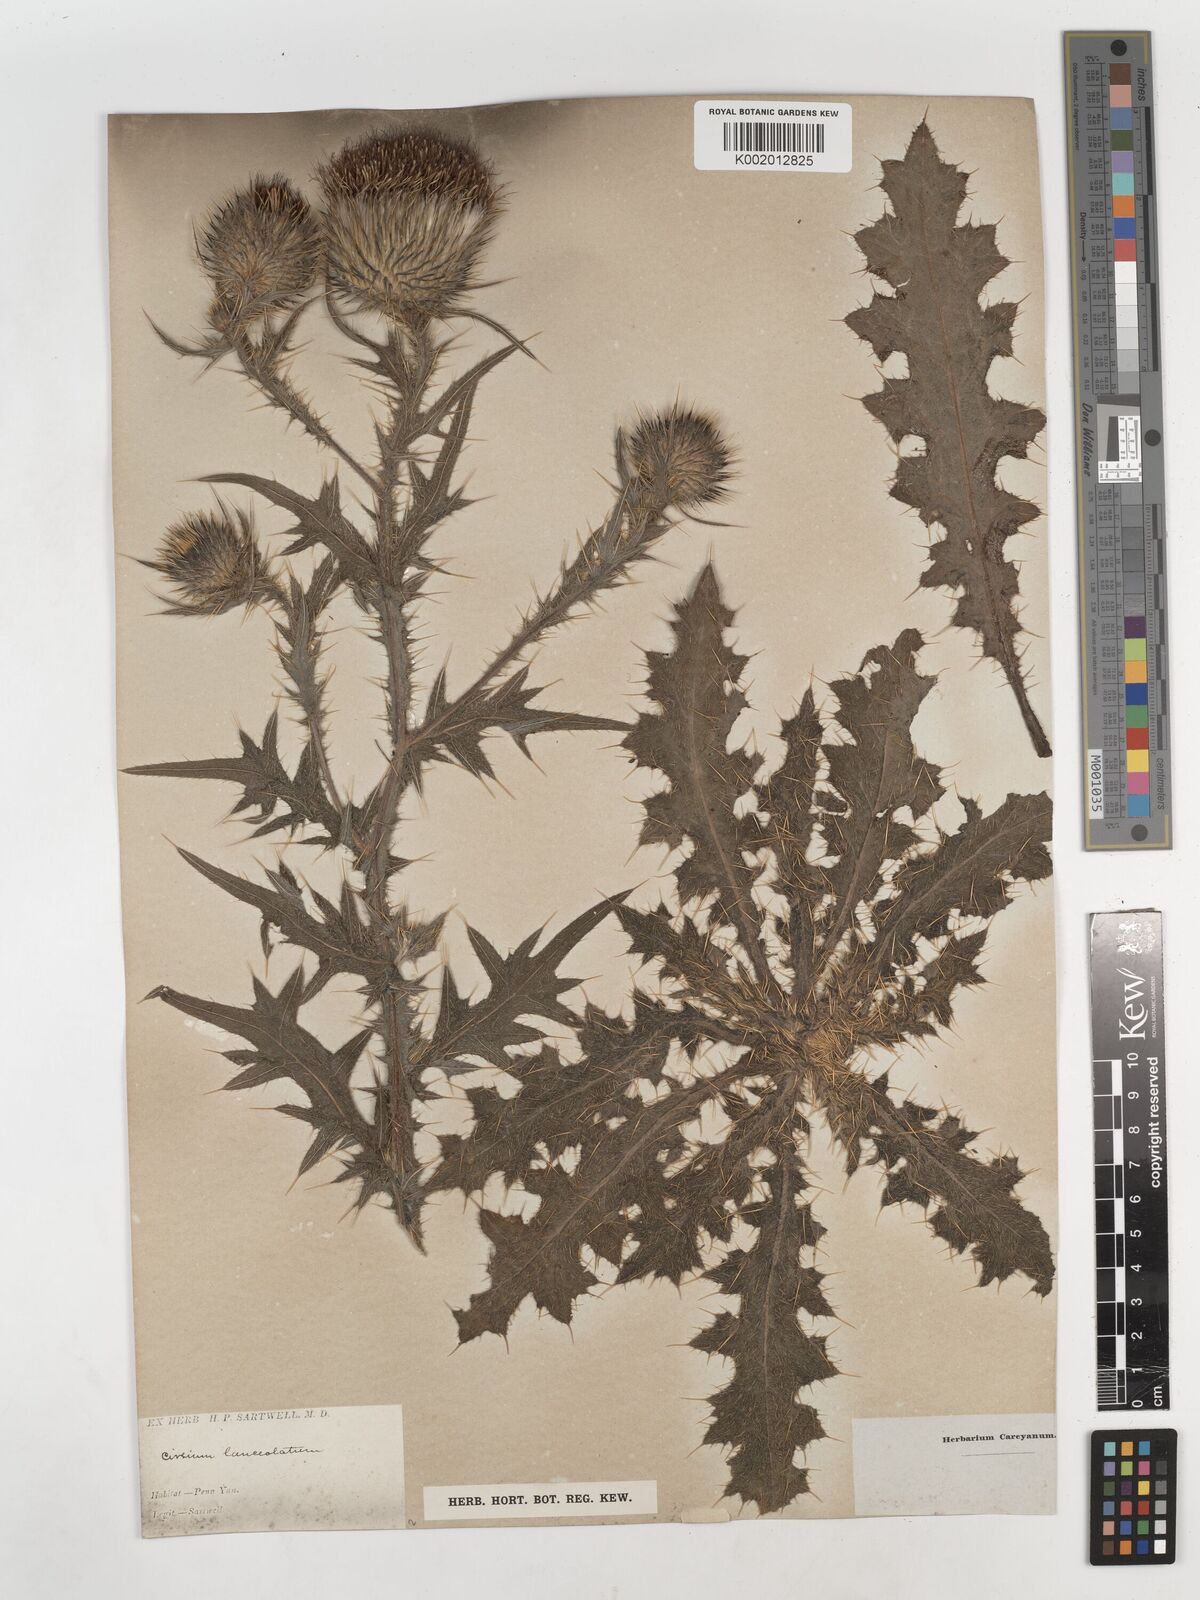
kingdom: Plantae
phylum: Tracheophyta
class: Magnoliopsida
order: Asterales
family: Asteraceae
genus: Cirsium
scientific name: Cirsium
